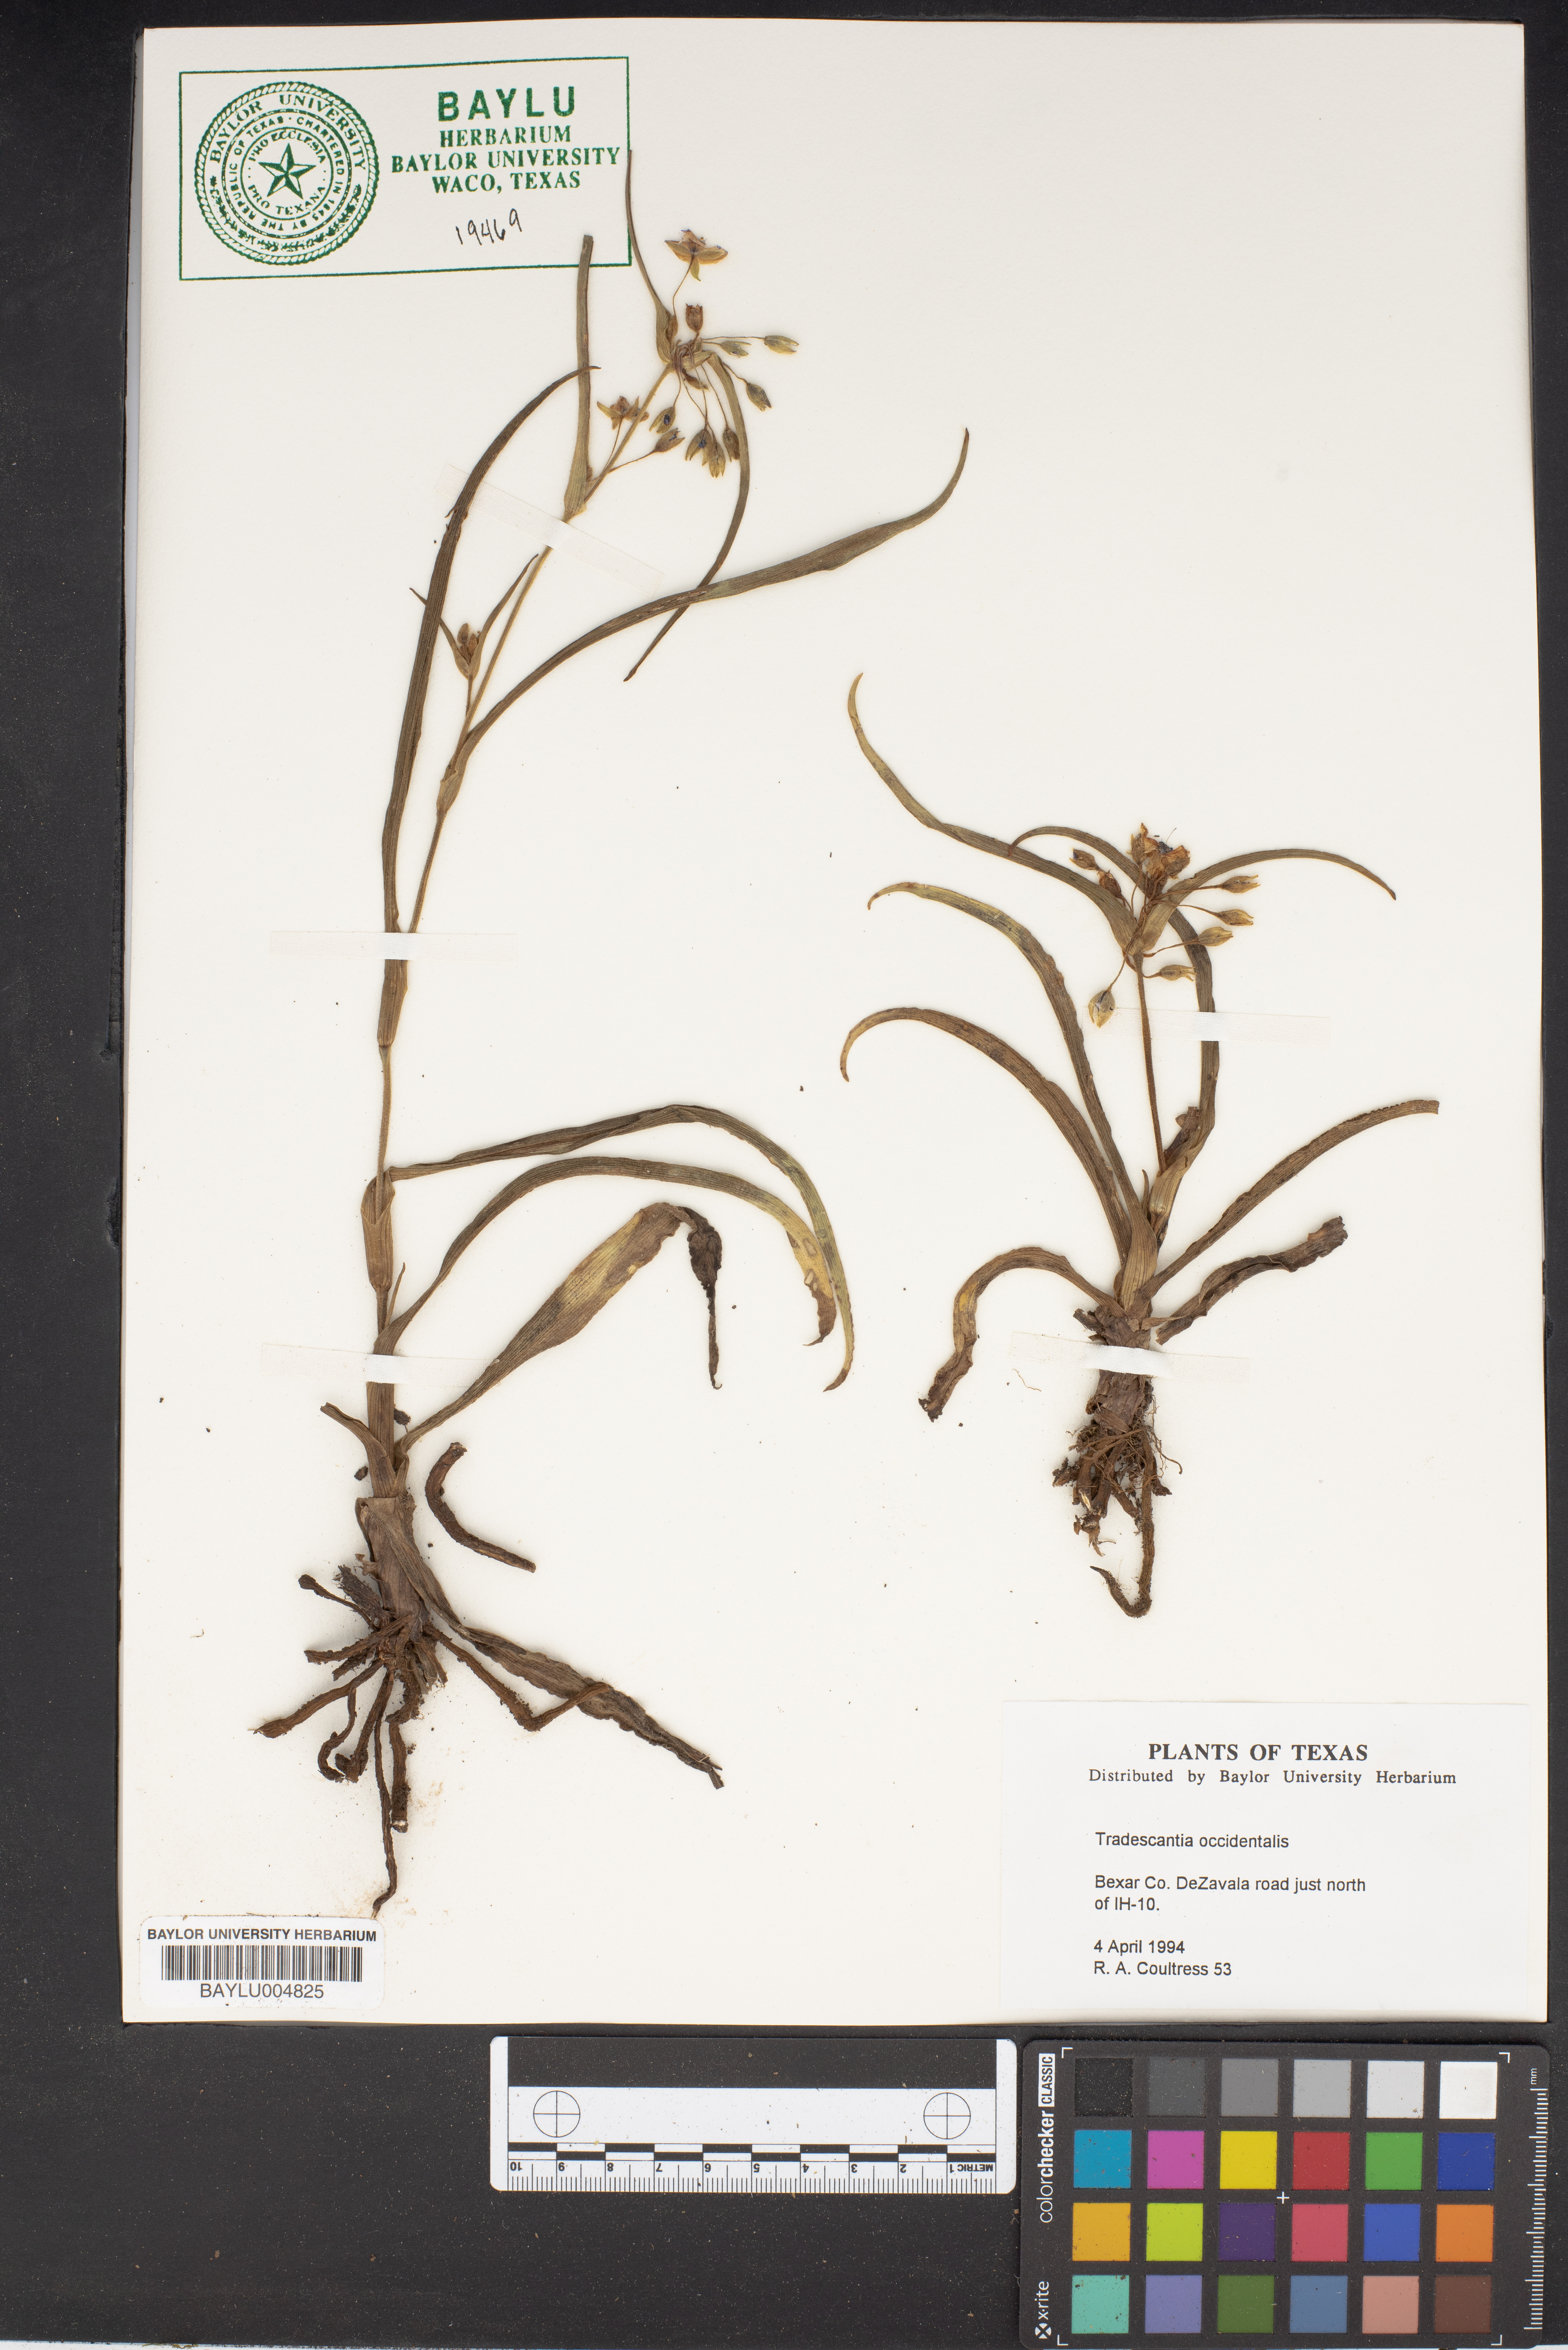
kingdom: Plantae
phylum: Tracheophyta
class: Liliopsida
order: Commelinales
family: Commelinaceae
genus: Tradescantia
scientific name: Tradescantia occidentalis
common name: Prairie spiderwort
